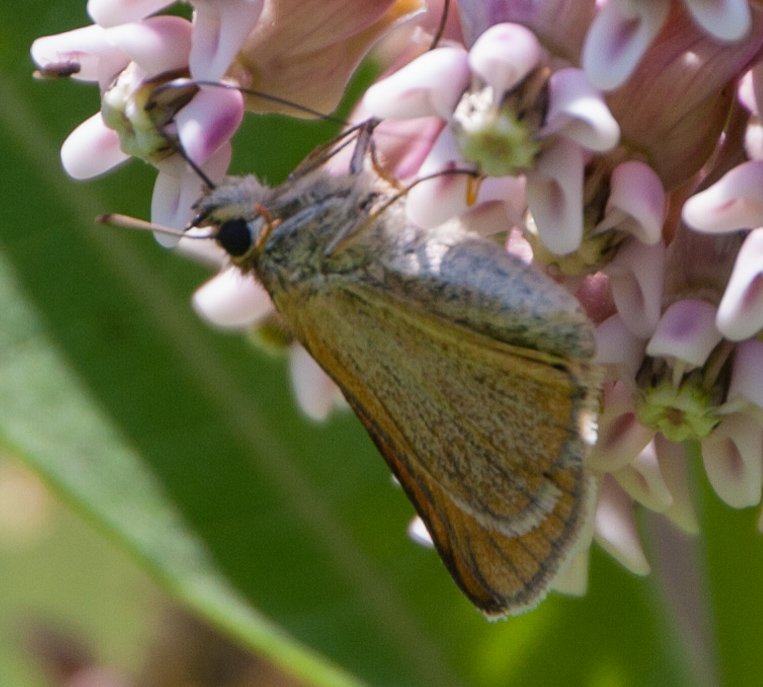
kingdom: Animalia
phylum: Arthropoda
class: Insecta
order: Lepidoptera
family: Hesperiidae
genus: Thymelicus
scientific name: Thymelicus lineola
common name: European Skipper
